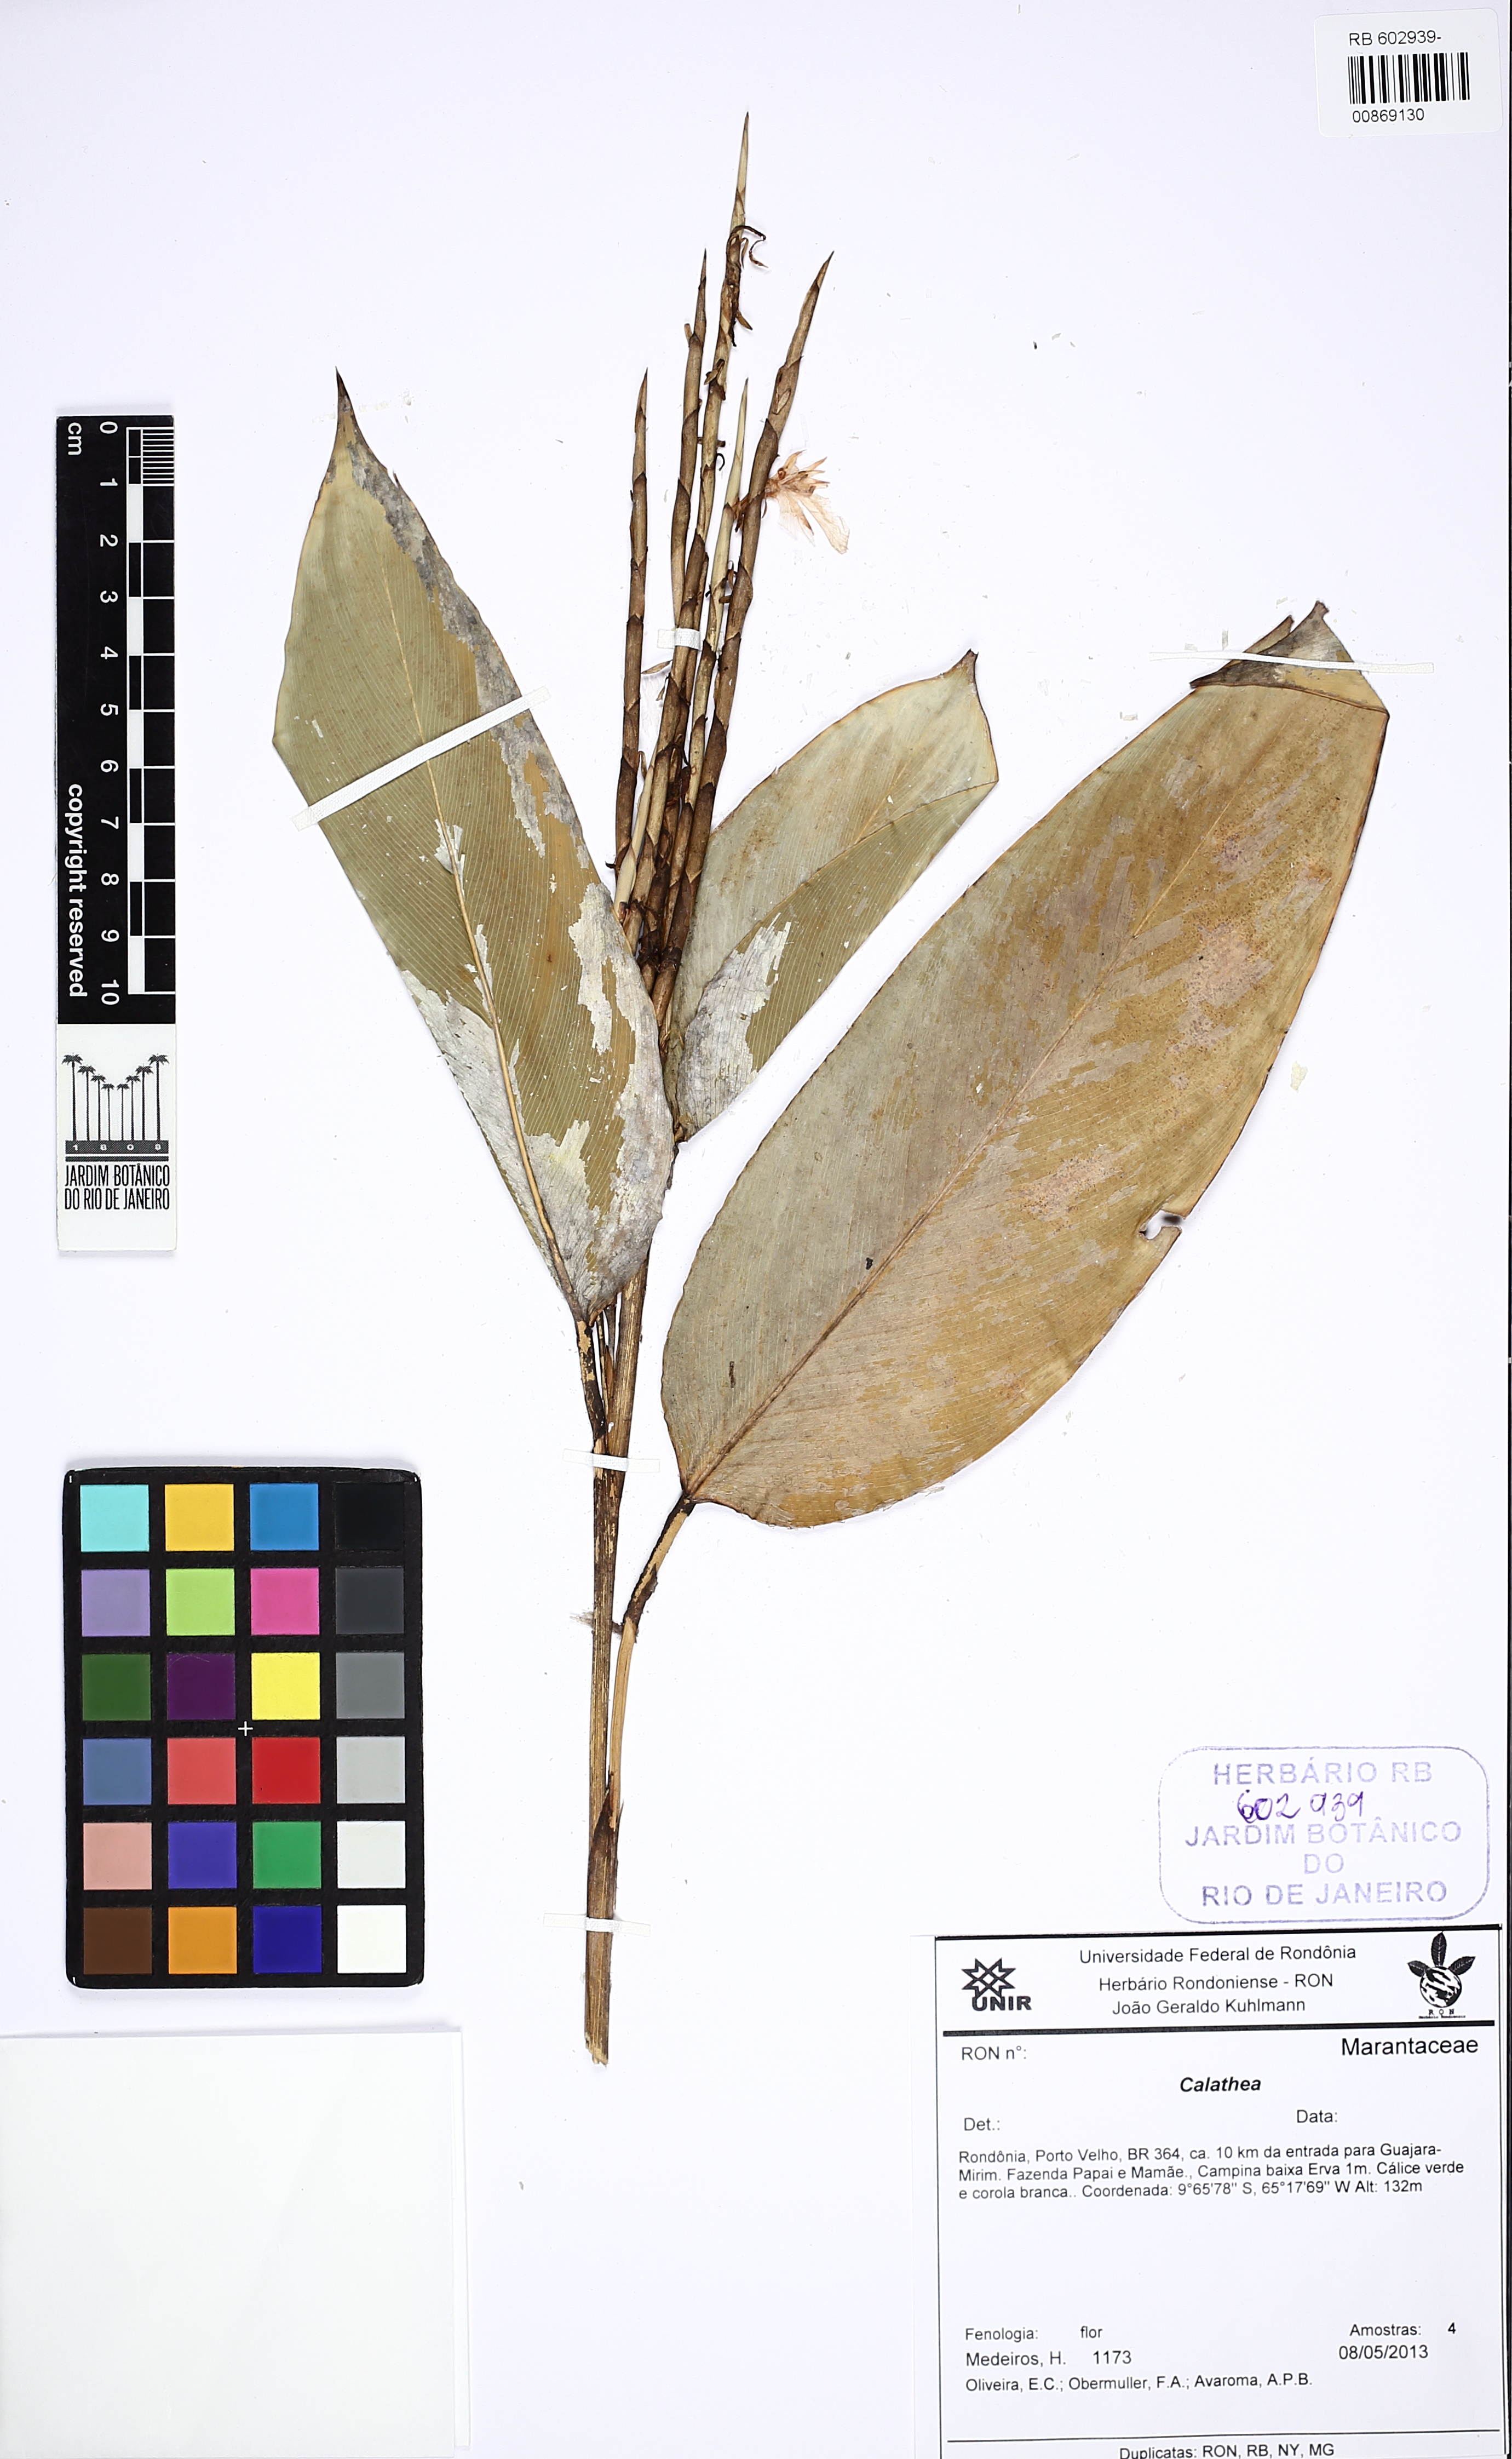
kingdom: Plantae
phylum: Tracheophyta
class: Liliopsida
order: Zingiberales
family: Marantaceae
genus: Calathea
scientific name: Calathea
